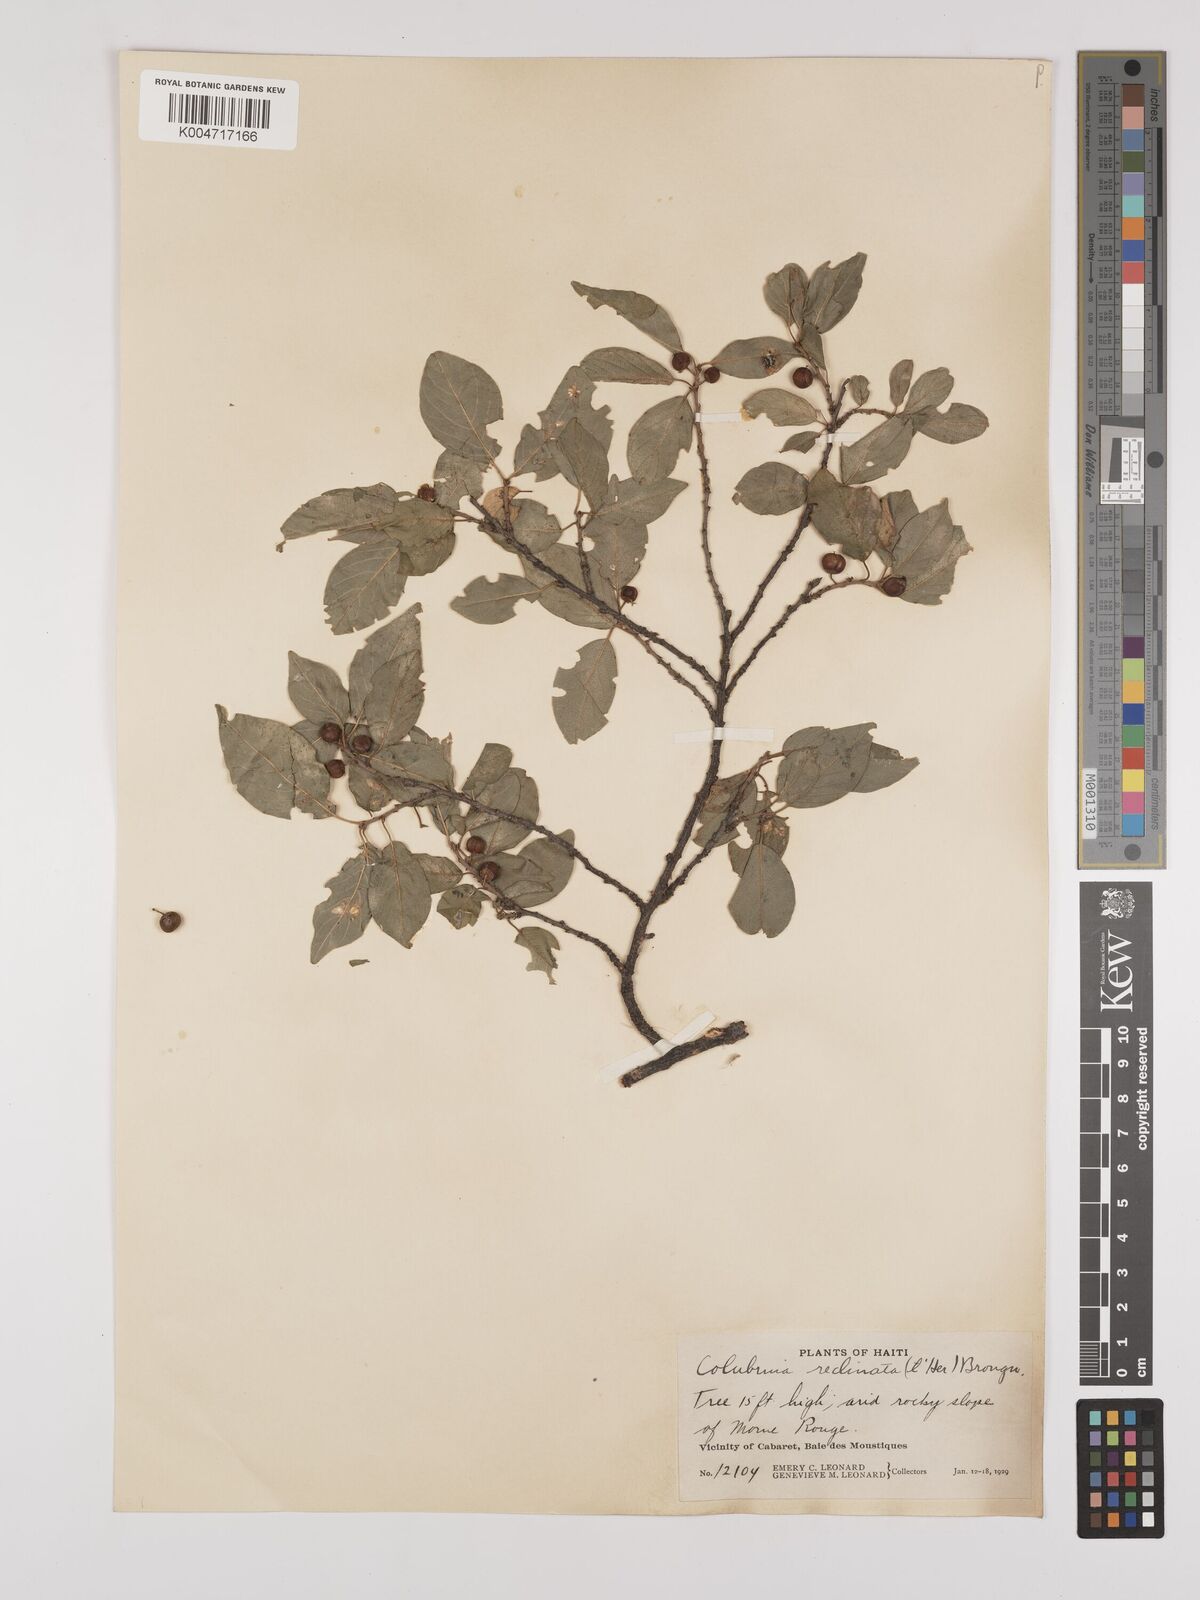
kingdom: Plantae
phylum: Tracheophyta
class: Magnoliopsida
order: Rosales
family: Rhamnaceae
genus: Colubrina
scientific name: Colubrina elliptica
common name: Soldierwood
